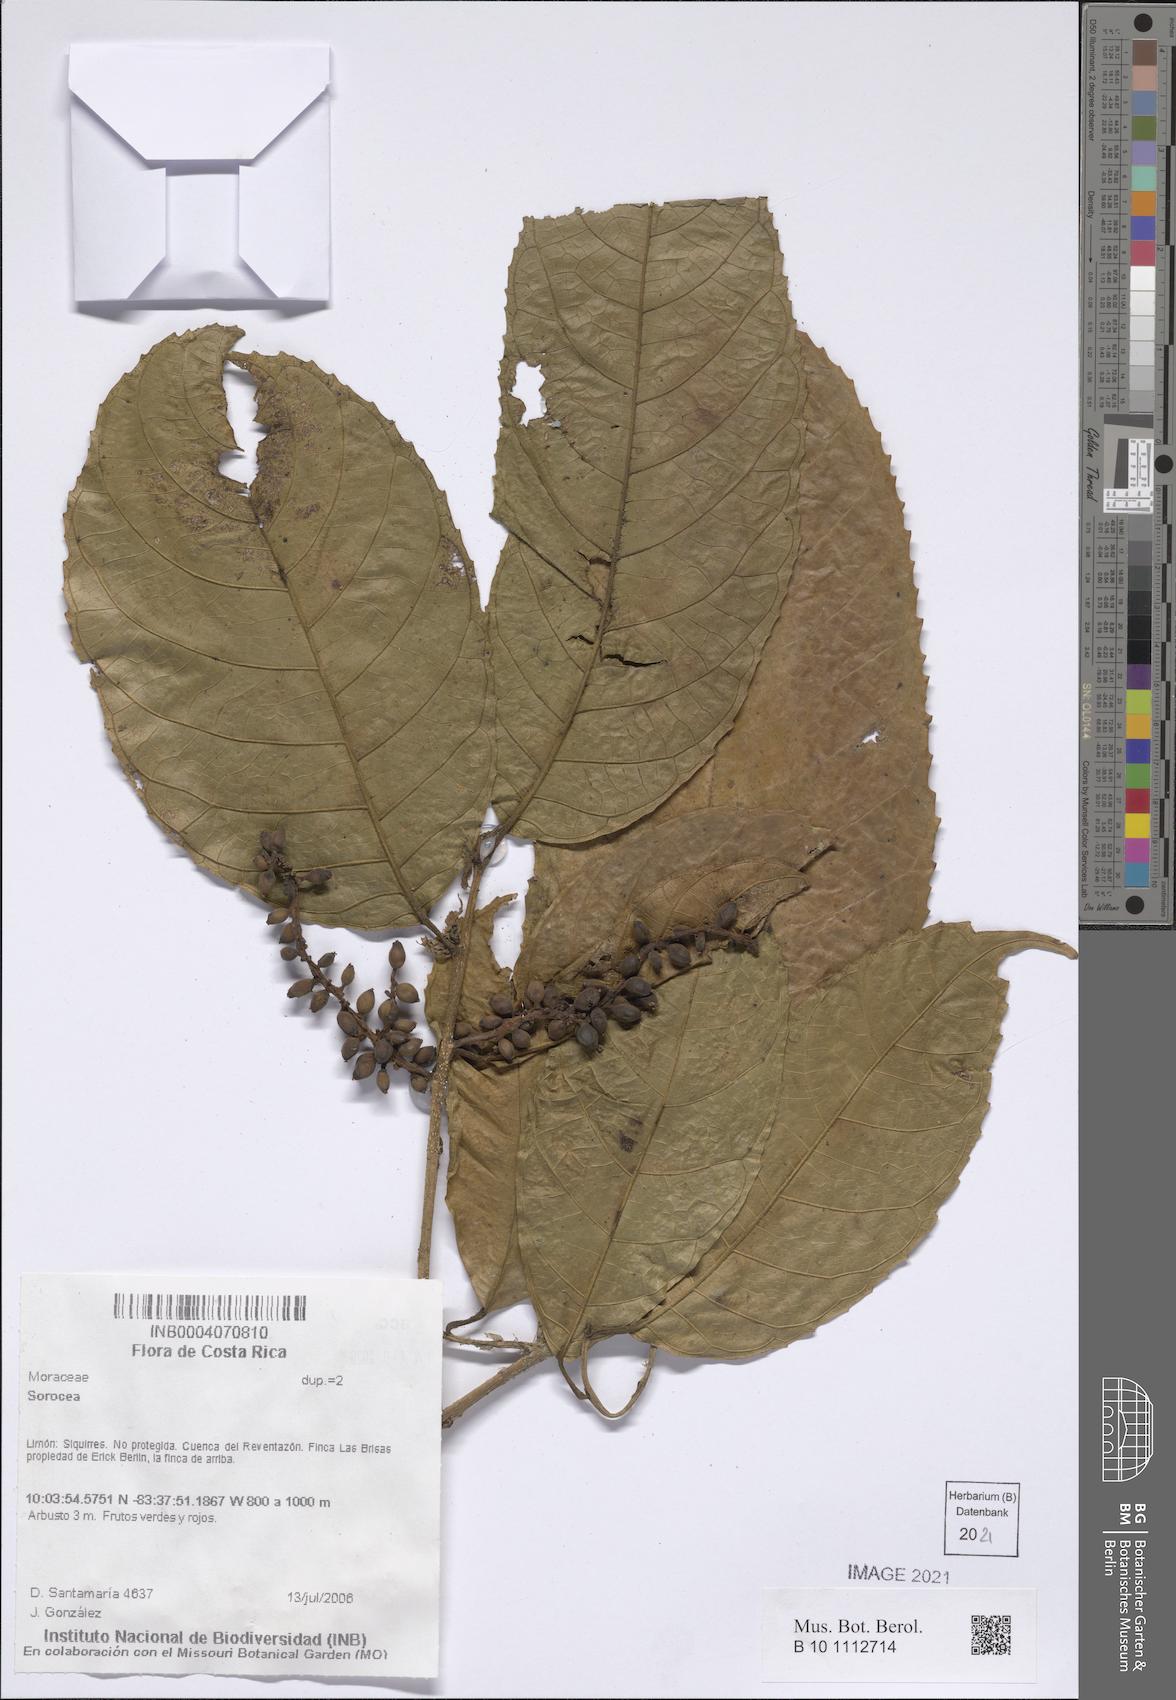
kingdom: Plantae
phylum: Tracheophyta
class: Magnoliopsida
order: Rosales
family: Moraceae
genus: Sorocea
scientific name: Sorocea
